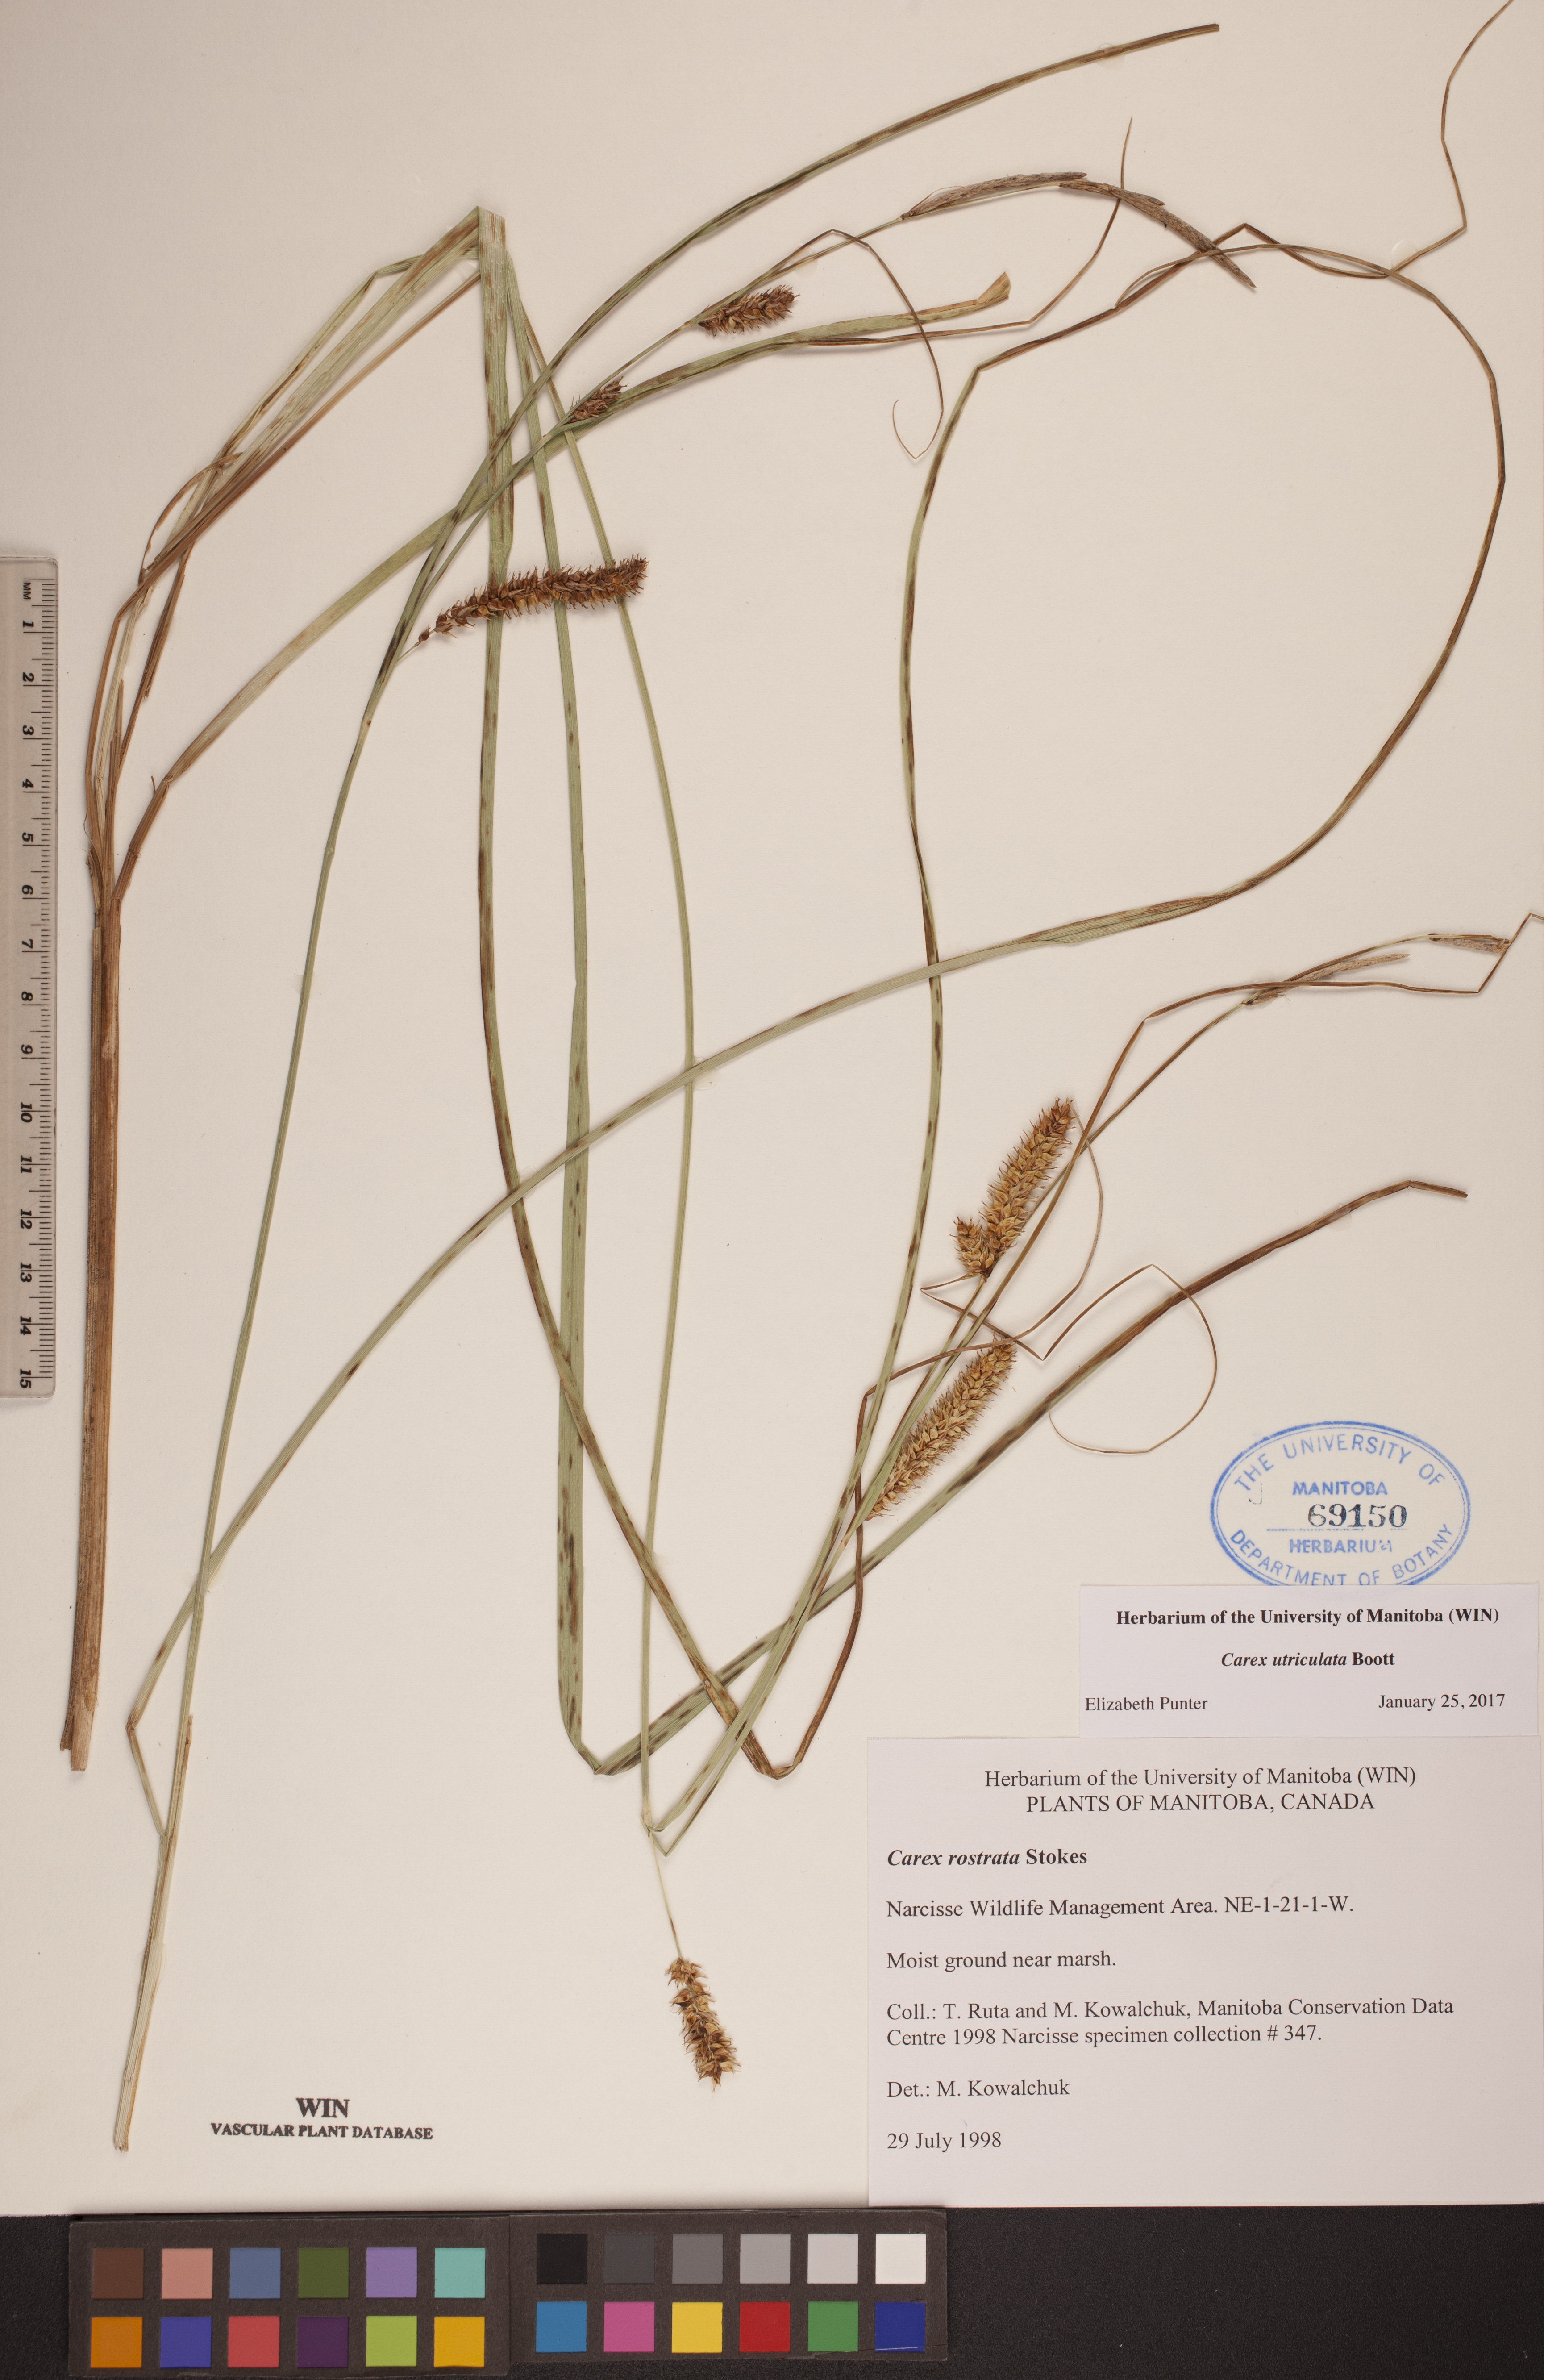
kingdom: Plantae
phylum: Tracheophyta
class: Liliopsida
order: Poales
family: Cyperaceae
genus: Carex
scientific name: Carex utriculata
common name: Beaked sedge
